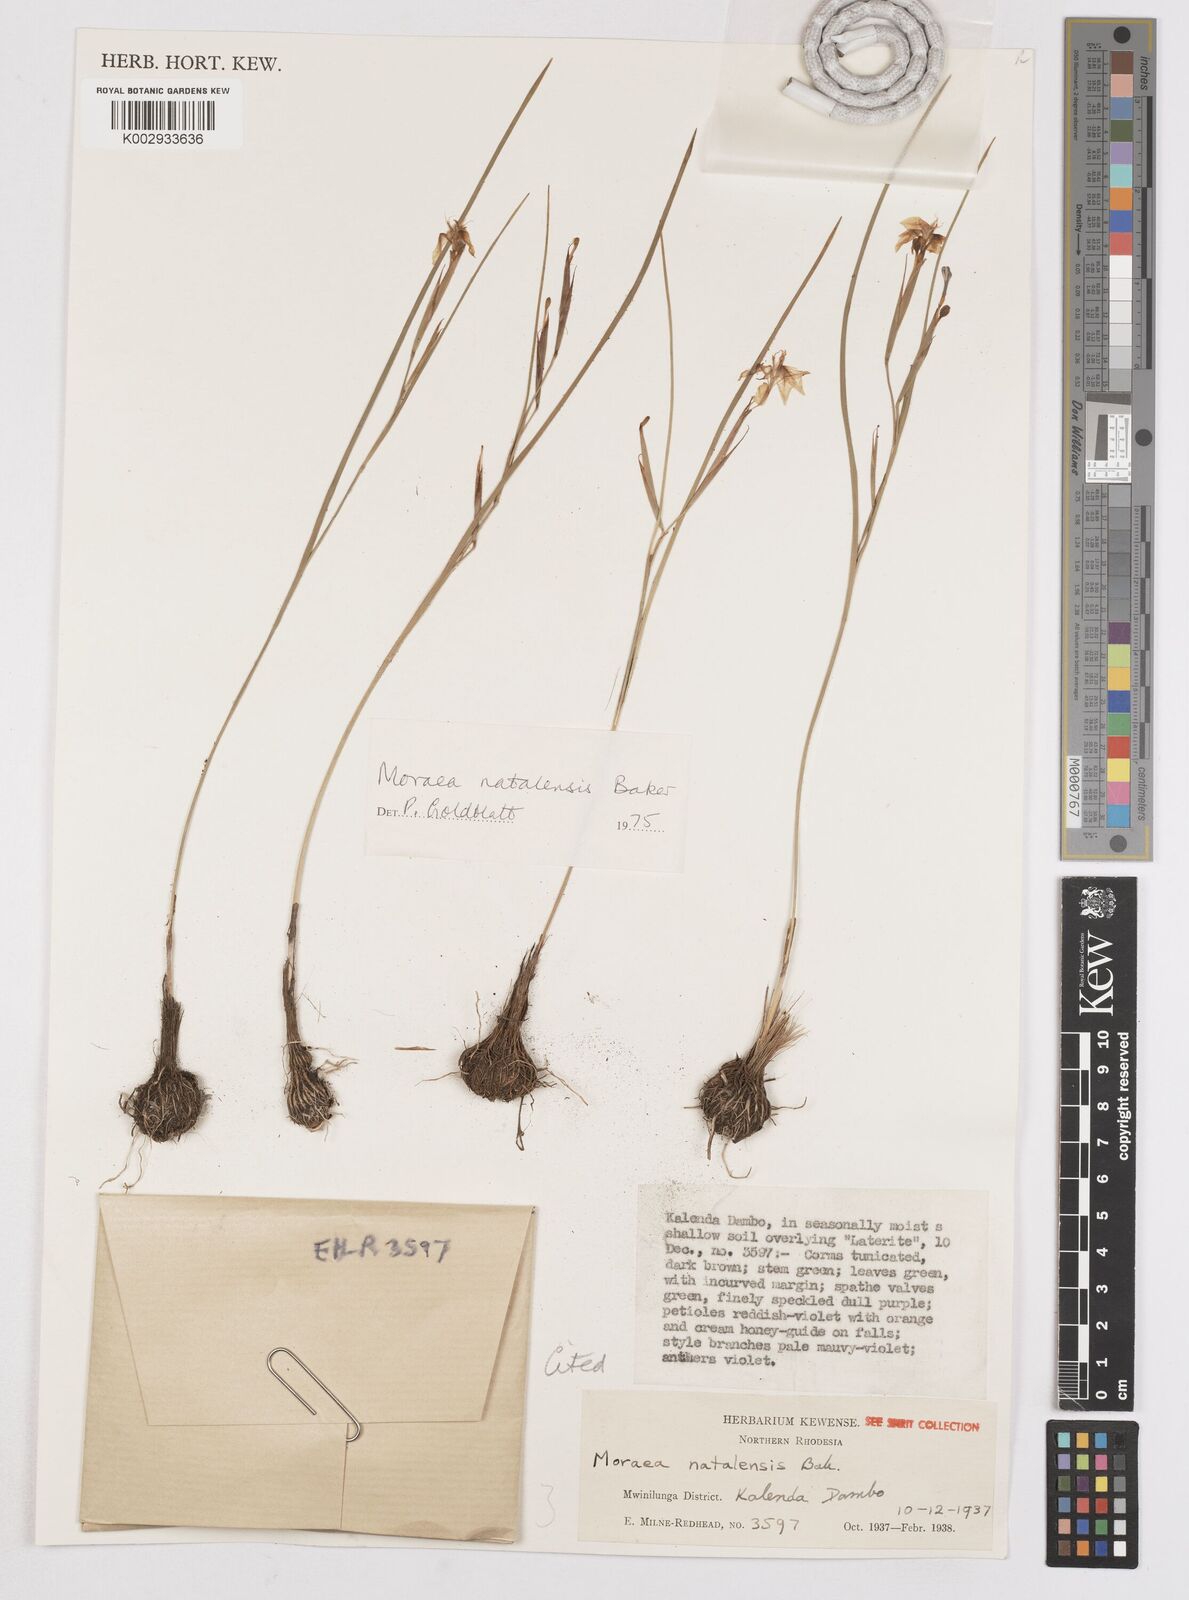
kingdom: Plantae
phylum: Tracheophyta
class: Liliopsida
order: Asparagales
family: Iridaceae
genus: Moraea
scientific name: Moraea natalensis
